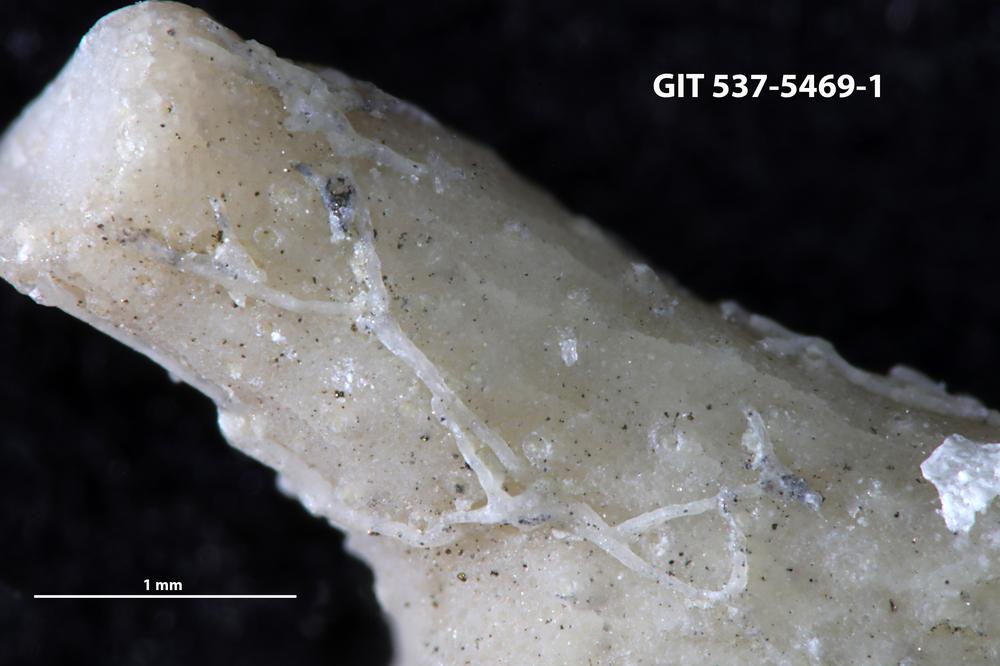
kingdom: Animalia
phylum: Bryozoa
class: Stenolaemata
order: Cyclostomatida
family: Corynotrypidae
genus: Corynotrypa
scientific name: Corynotrypa
